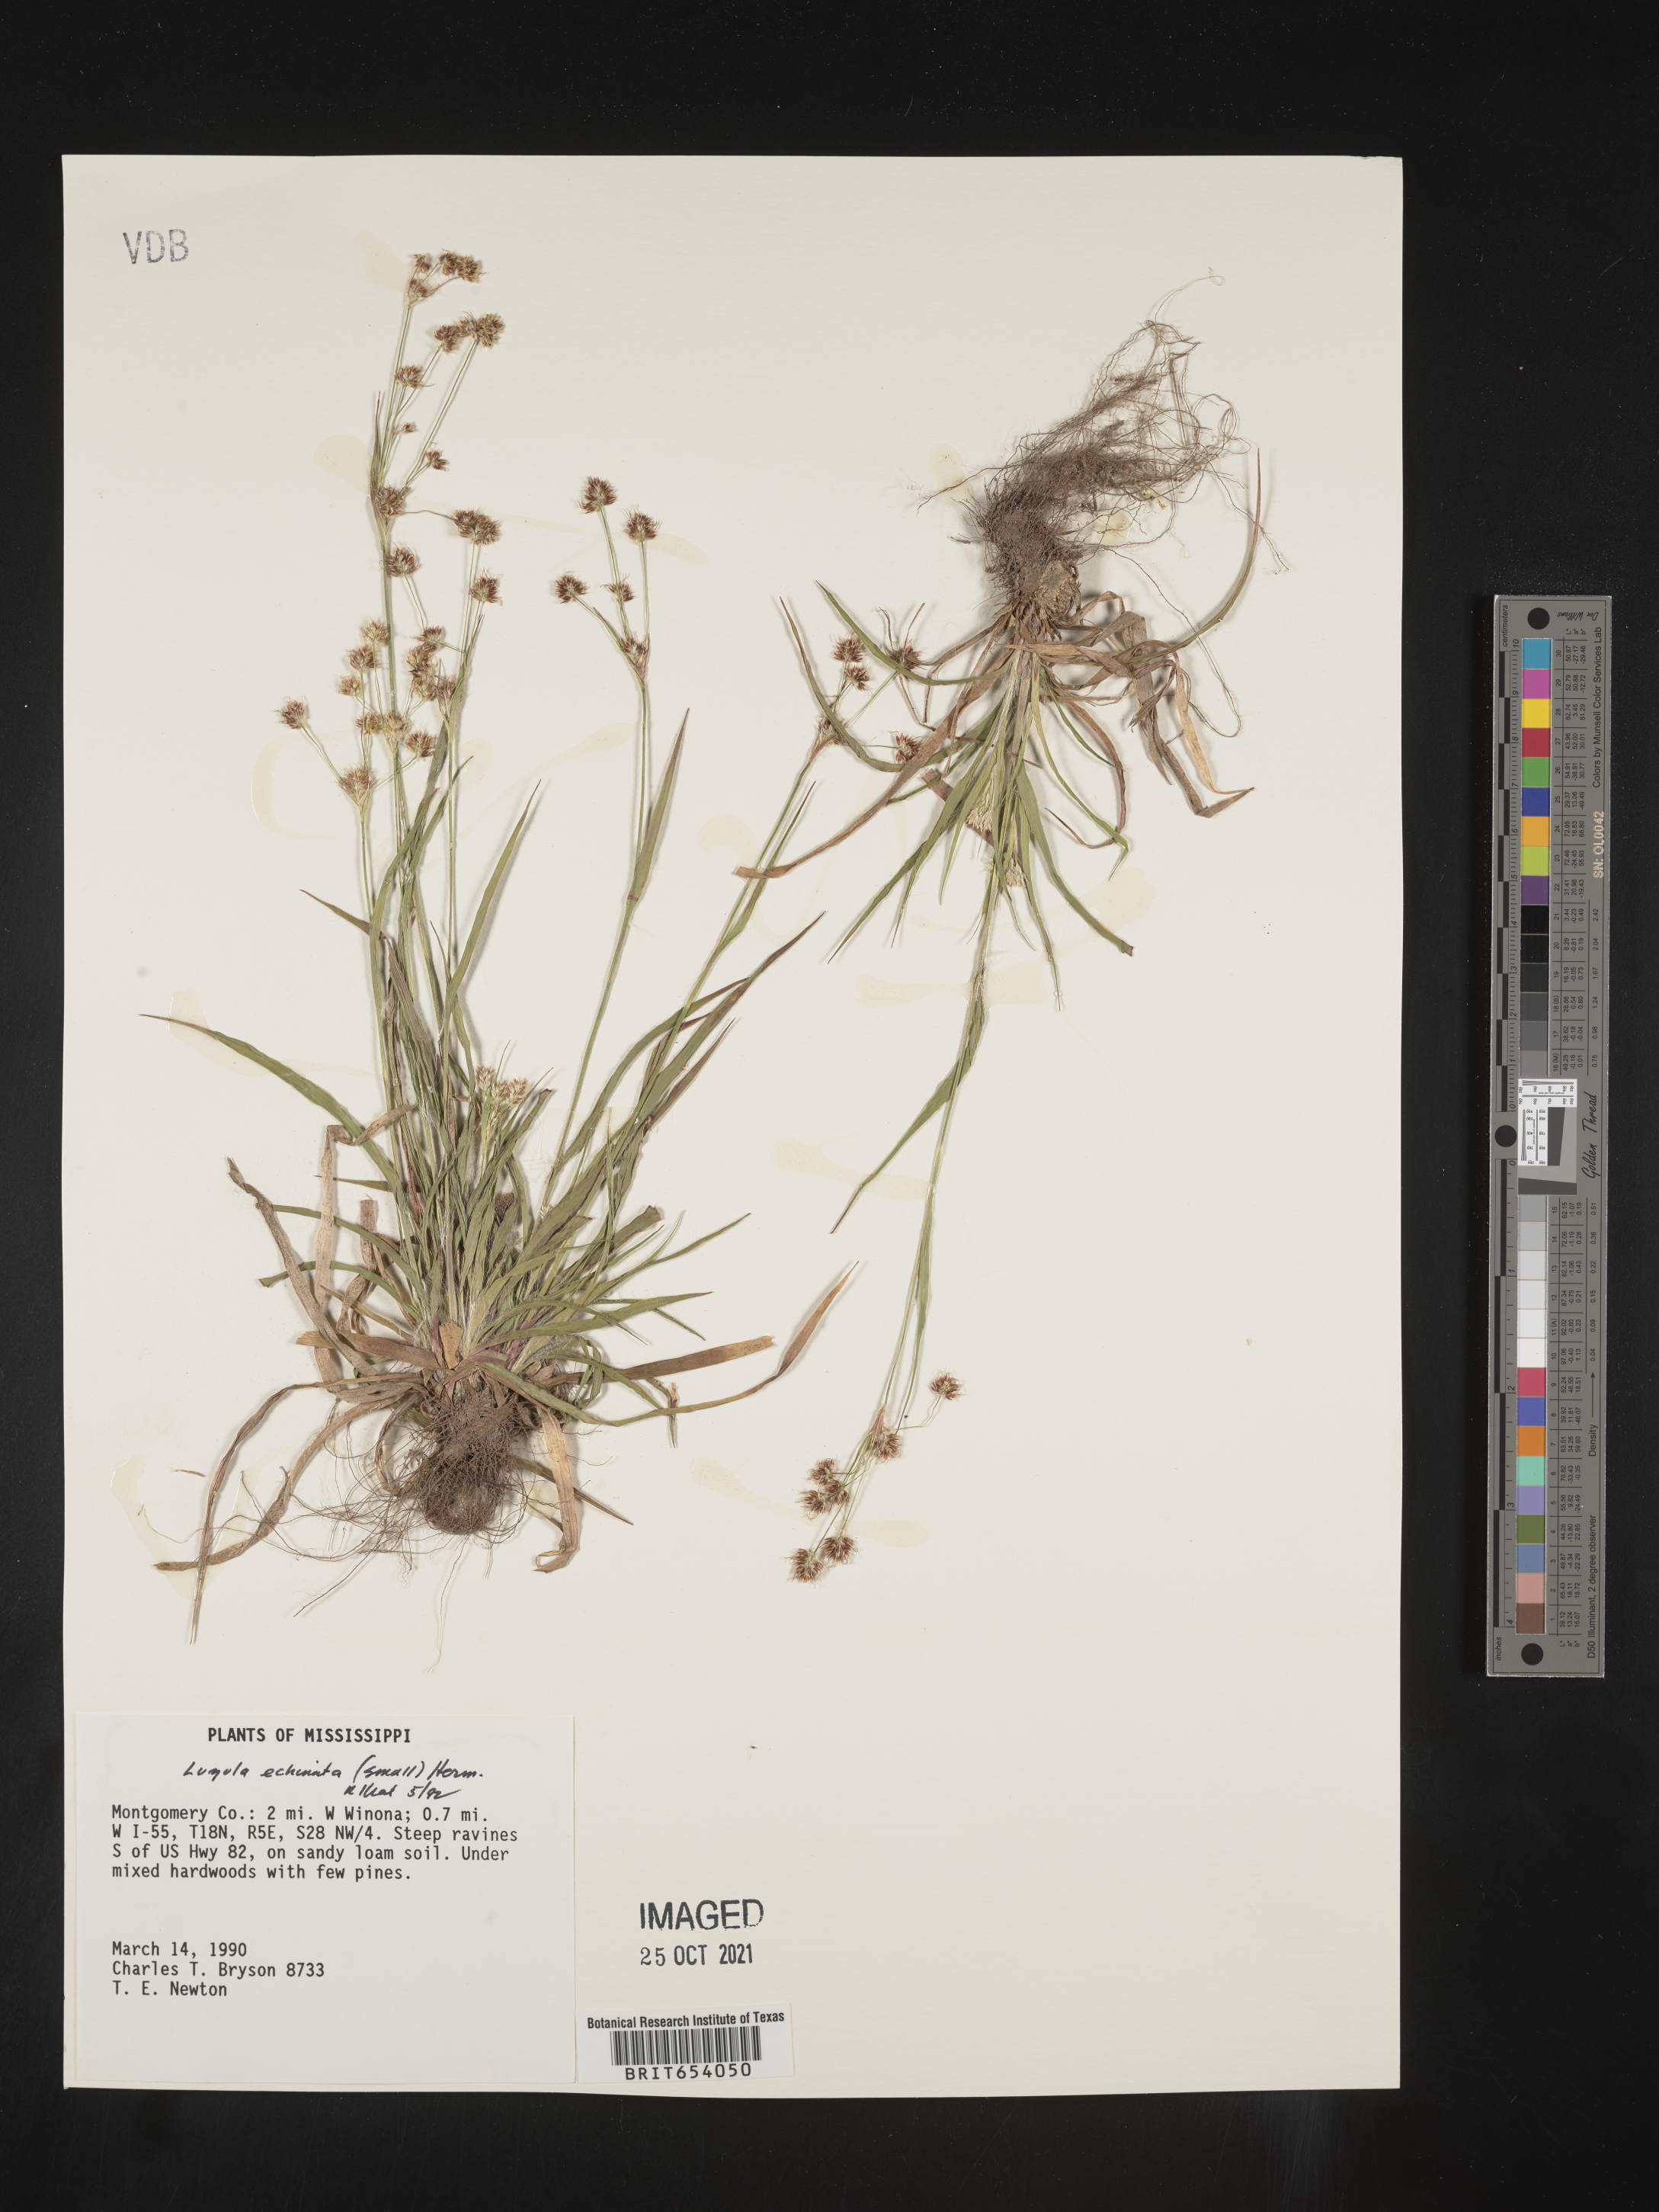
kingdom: Plantae
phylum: Tracheophyta
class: Liliopsida
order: Poales
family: Juncaceae
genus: Luzula
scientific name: Luzula echinata
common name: Hedgehog woodrush
